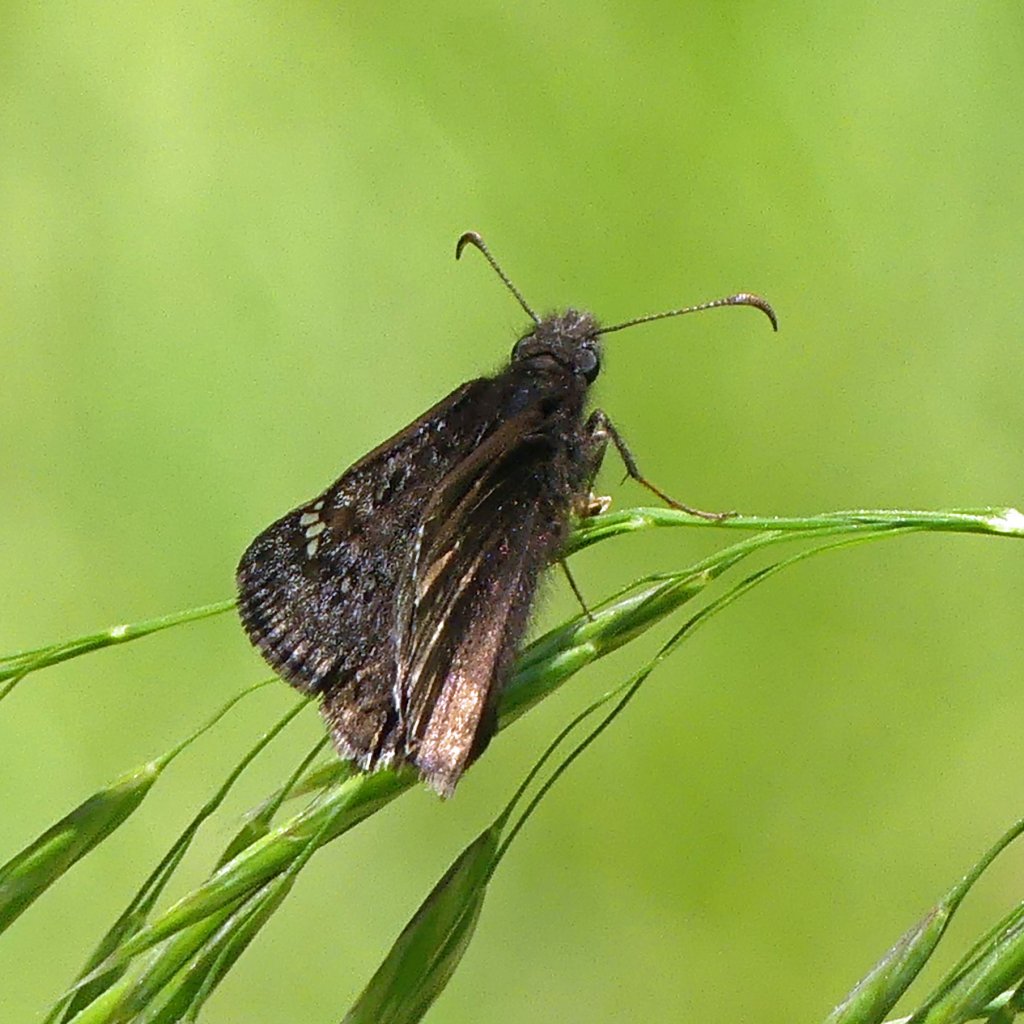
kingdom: Animalia
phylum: Arthropoda
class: Insecta
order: Lepidoptera
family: Hesperiidae
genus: Gesta
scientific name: Gesta
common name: Wild Indigo Duskywing
